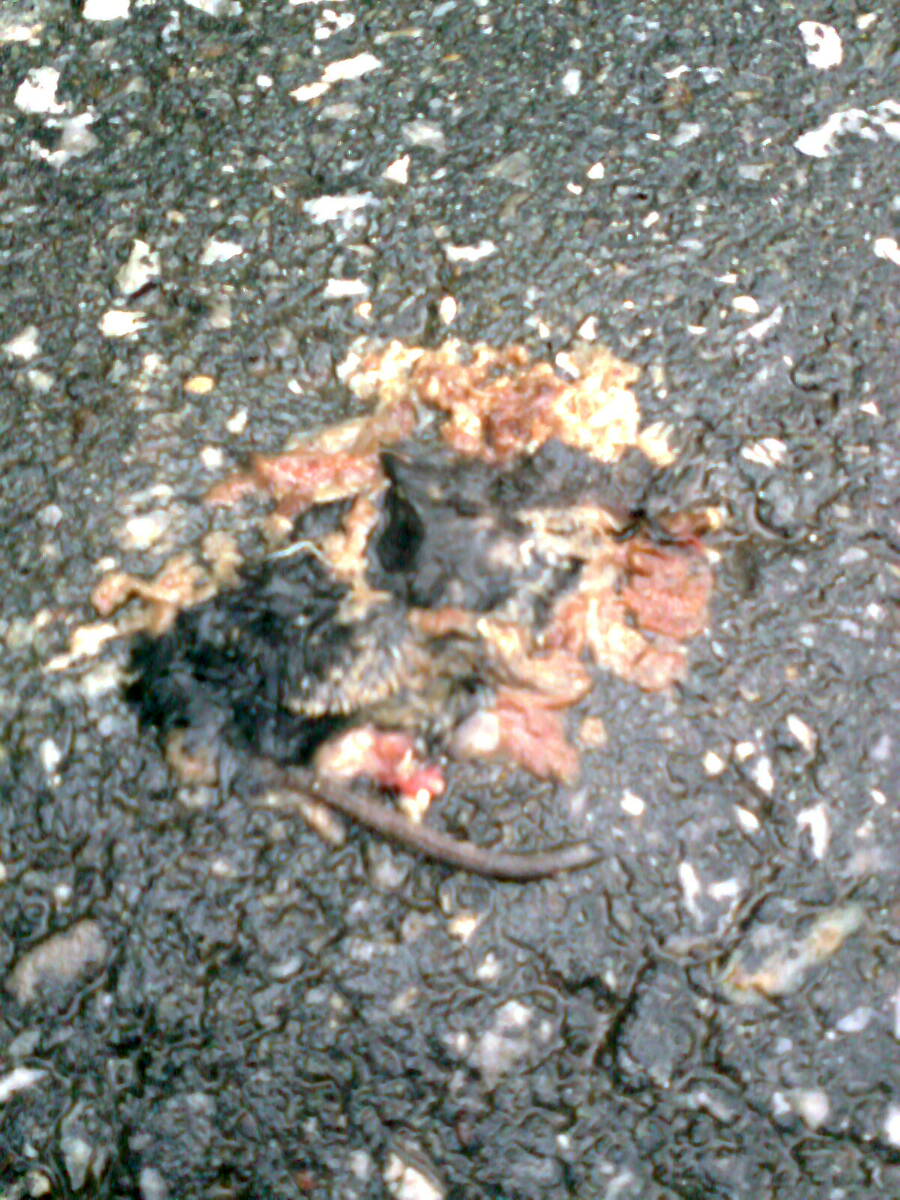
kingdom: Animalia
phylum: Chordata
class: Mammalia
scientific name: Mammalia
